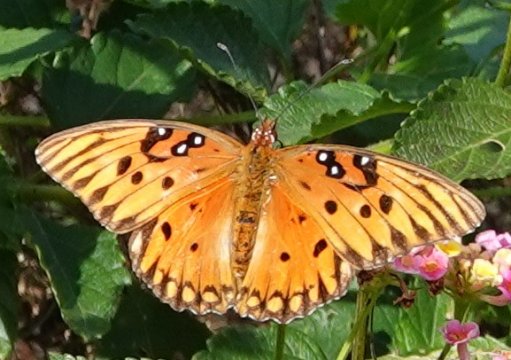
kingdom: Animalia
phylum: Arthropoda
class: Insecta
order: Lepidoptera
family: Nymphalidae
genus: Dione
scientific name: Dione vanillae
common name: Gulf Fritillary
